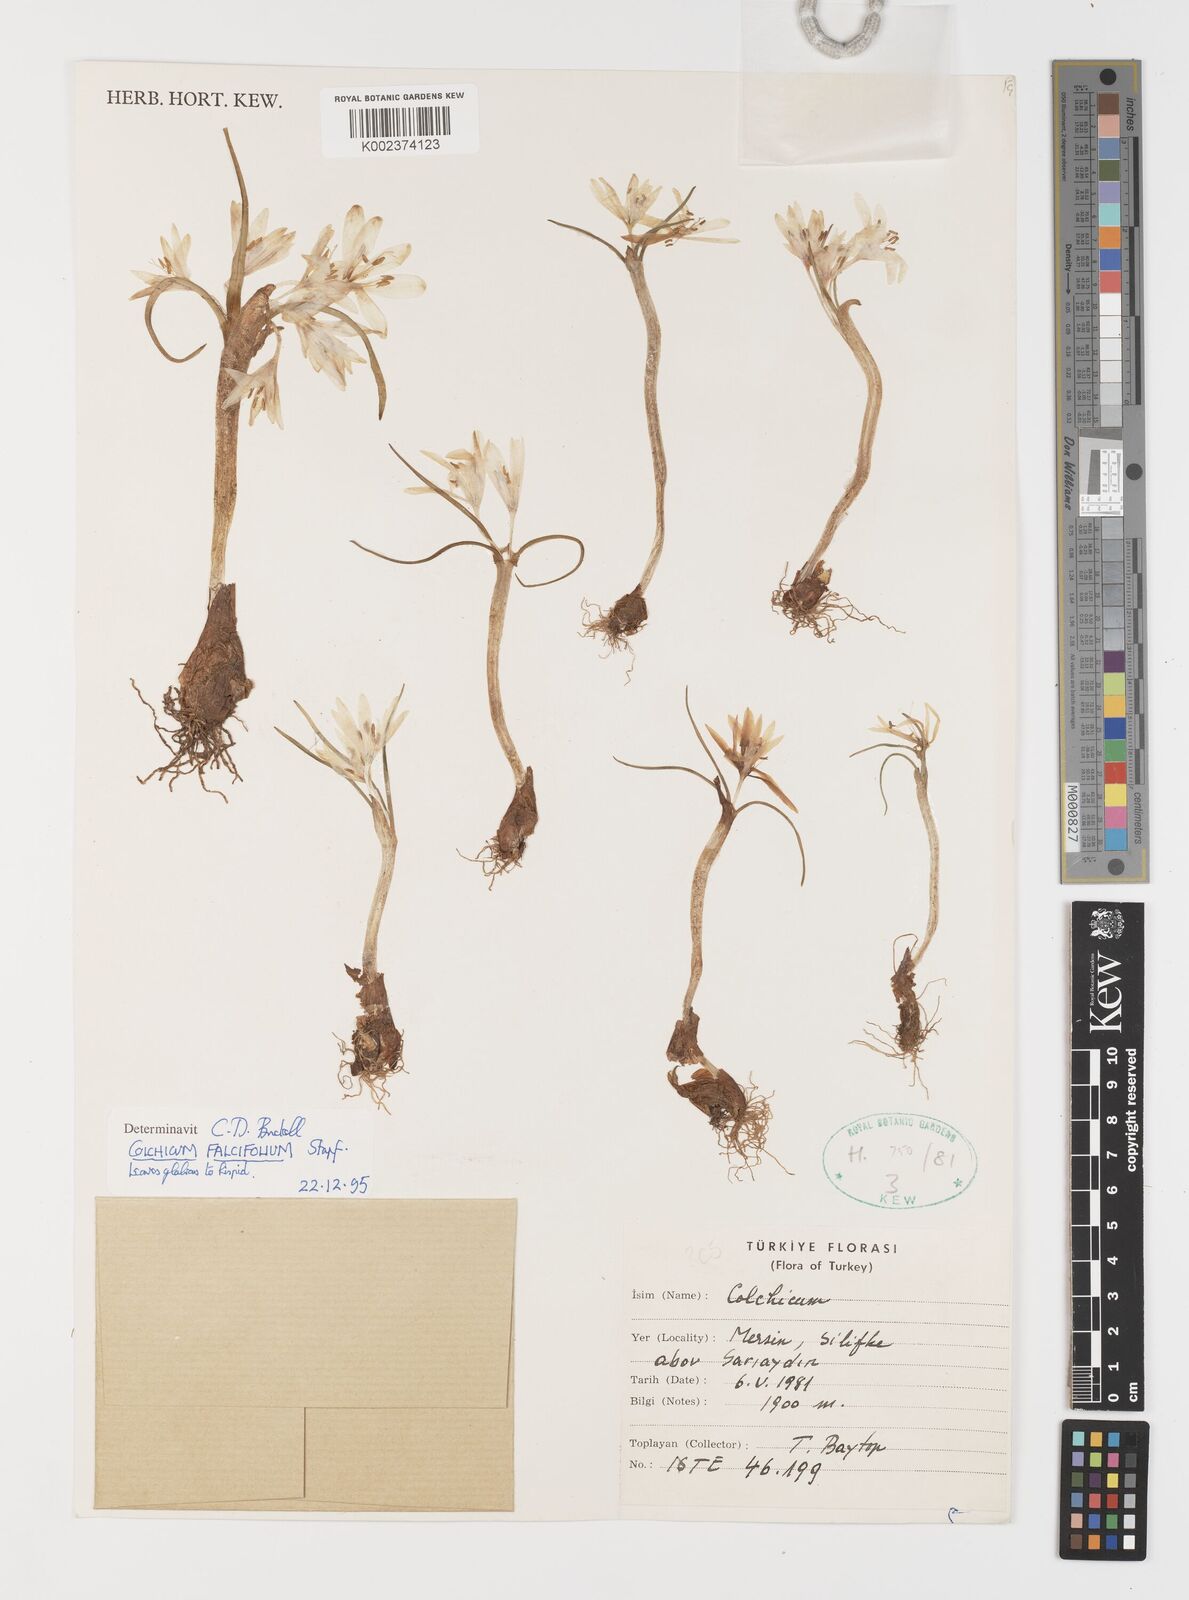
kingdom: Plantae
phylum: Tracheophyta
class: Liliopsida
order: Asparagales
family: Iridaceae
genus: Iris
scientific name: Iris caucasica
